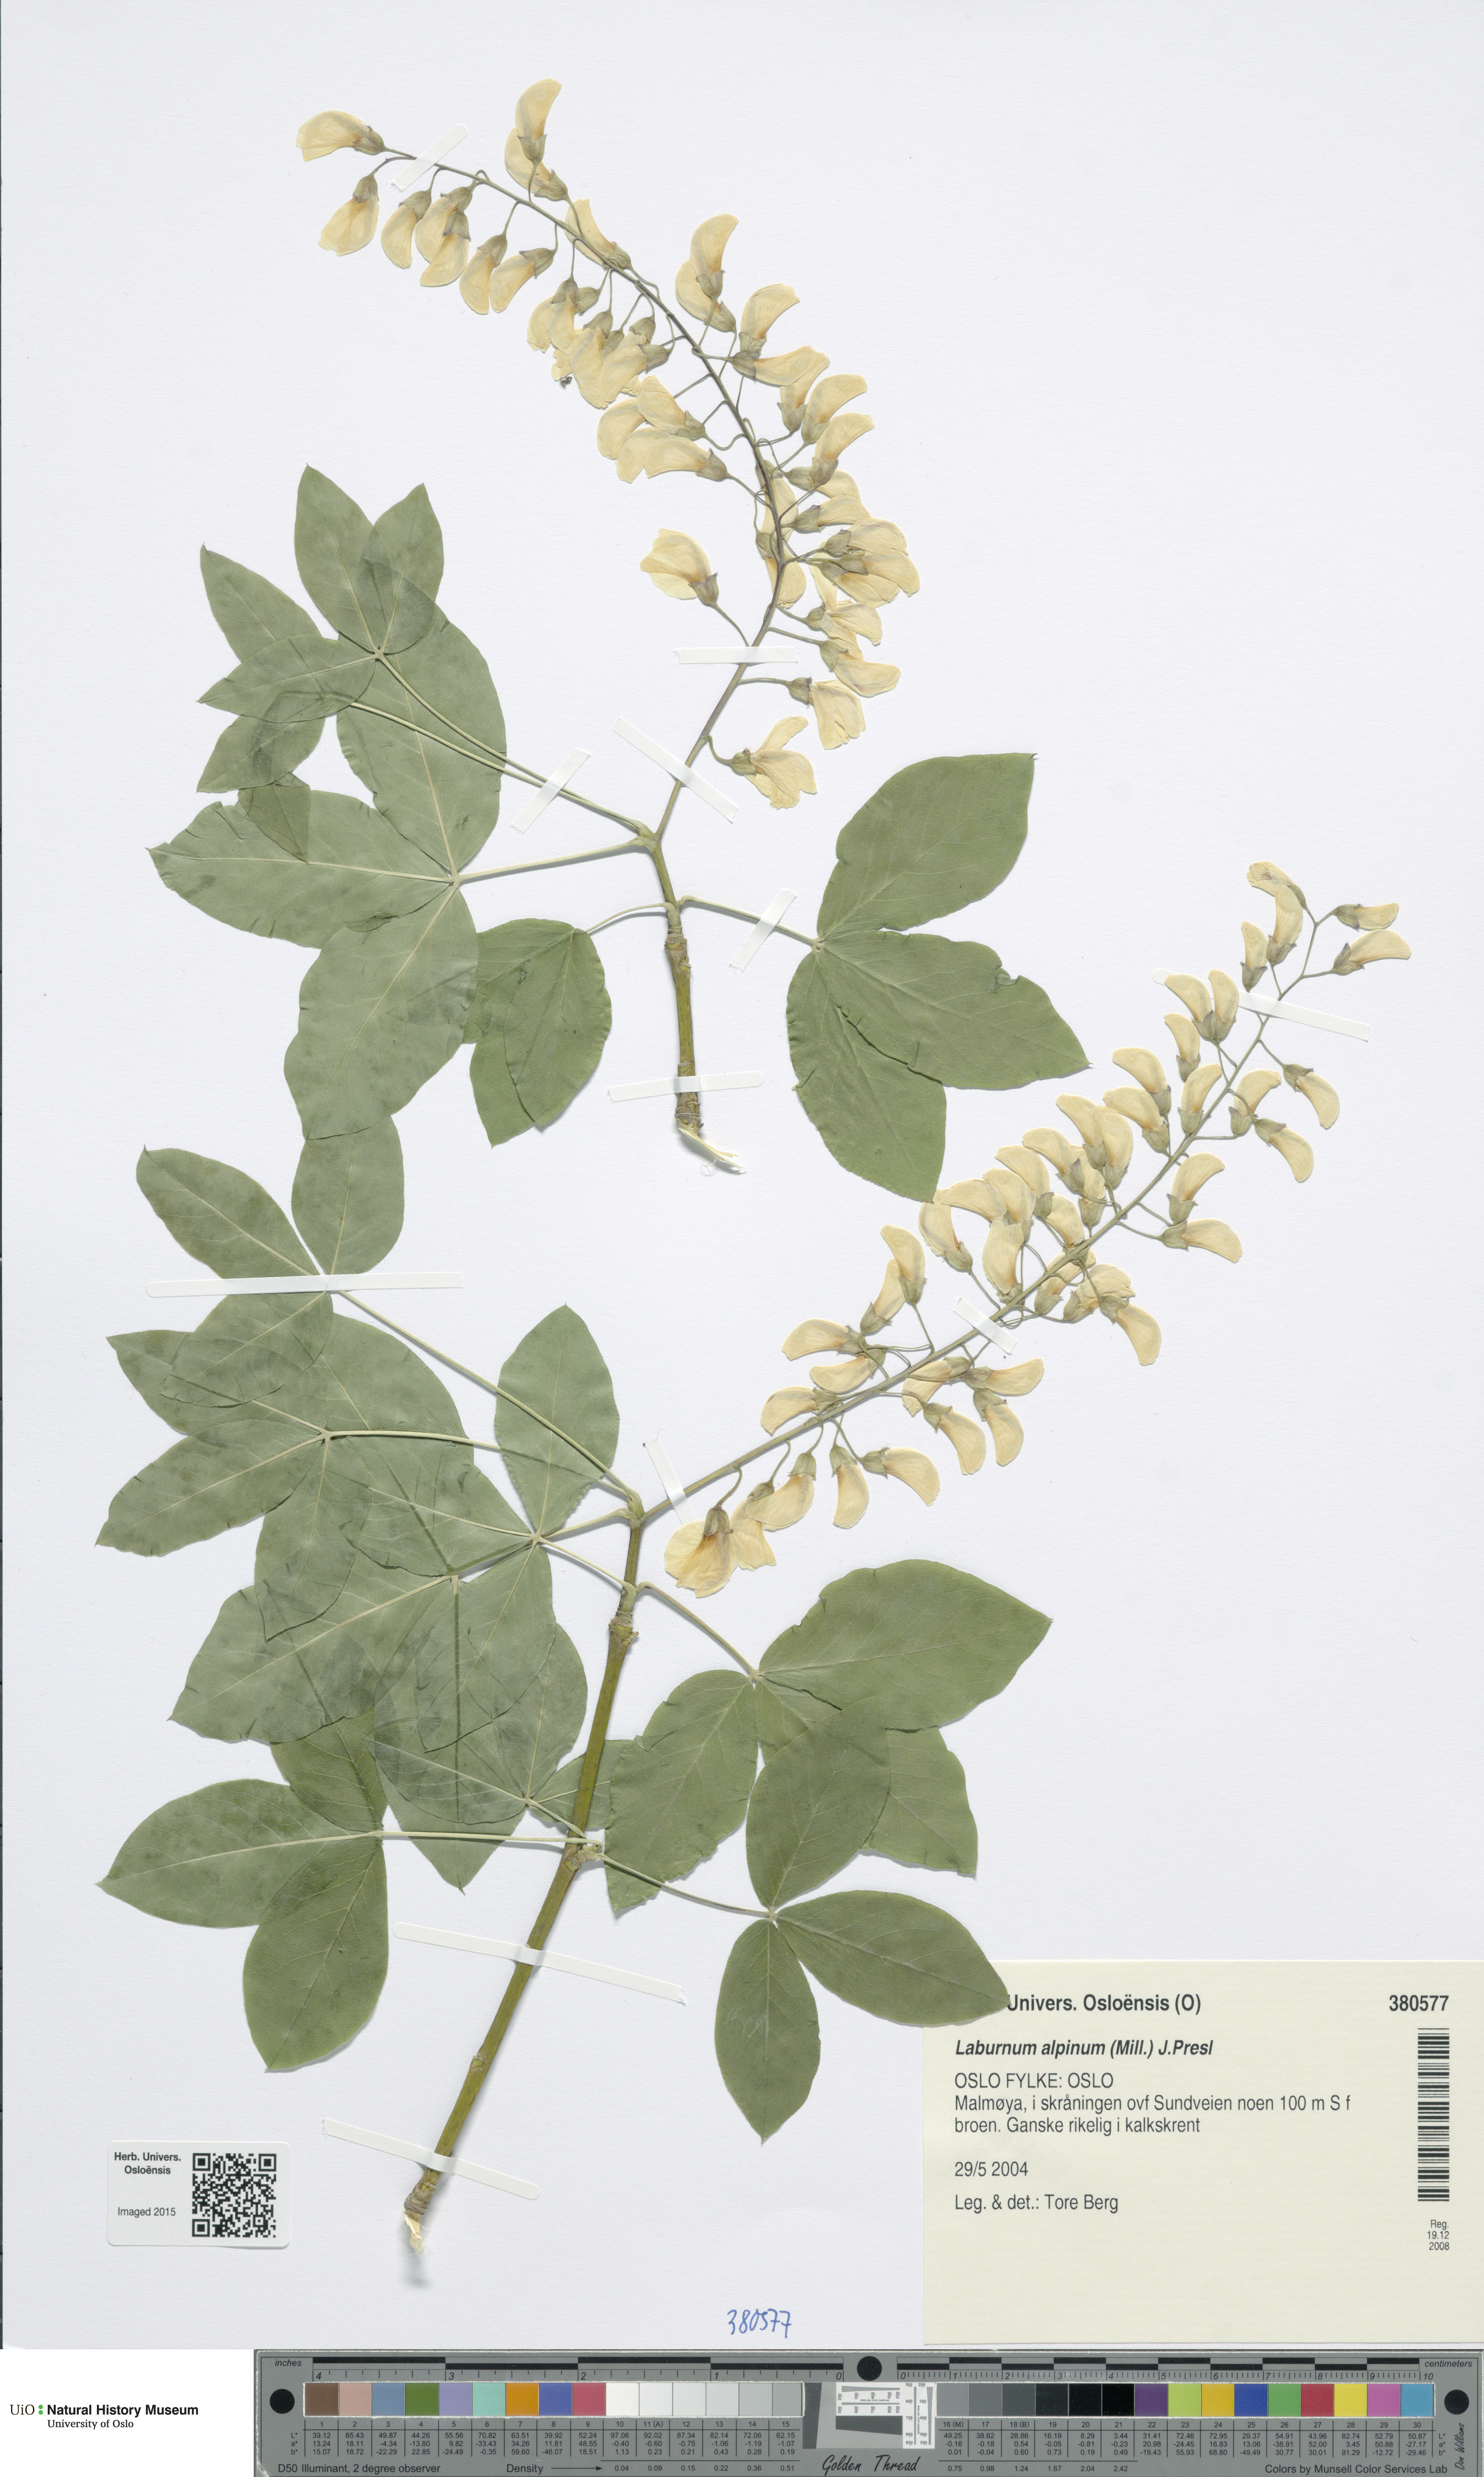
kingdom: Plantae
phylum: Tracheophyta
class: Magnoliopsida
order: Fabales
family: Fabaceae
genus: Laburnum
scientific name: Laburnum alpinum
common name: Scottish laburnum
